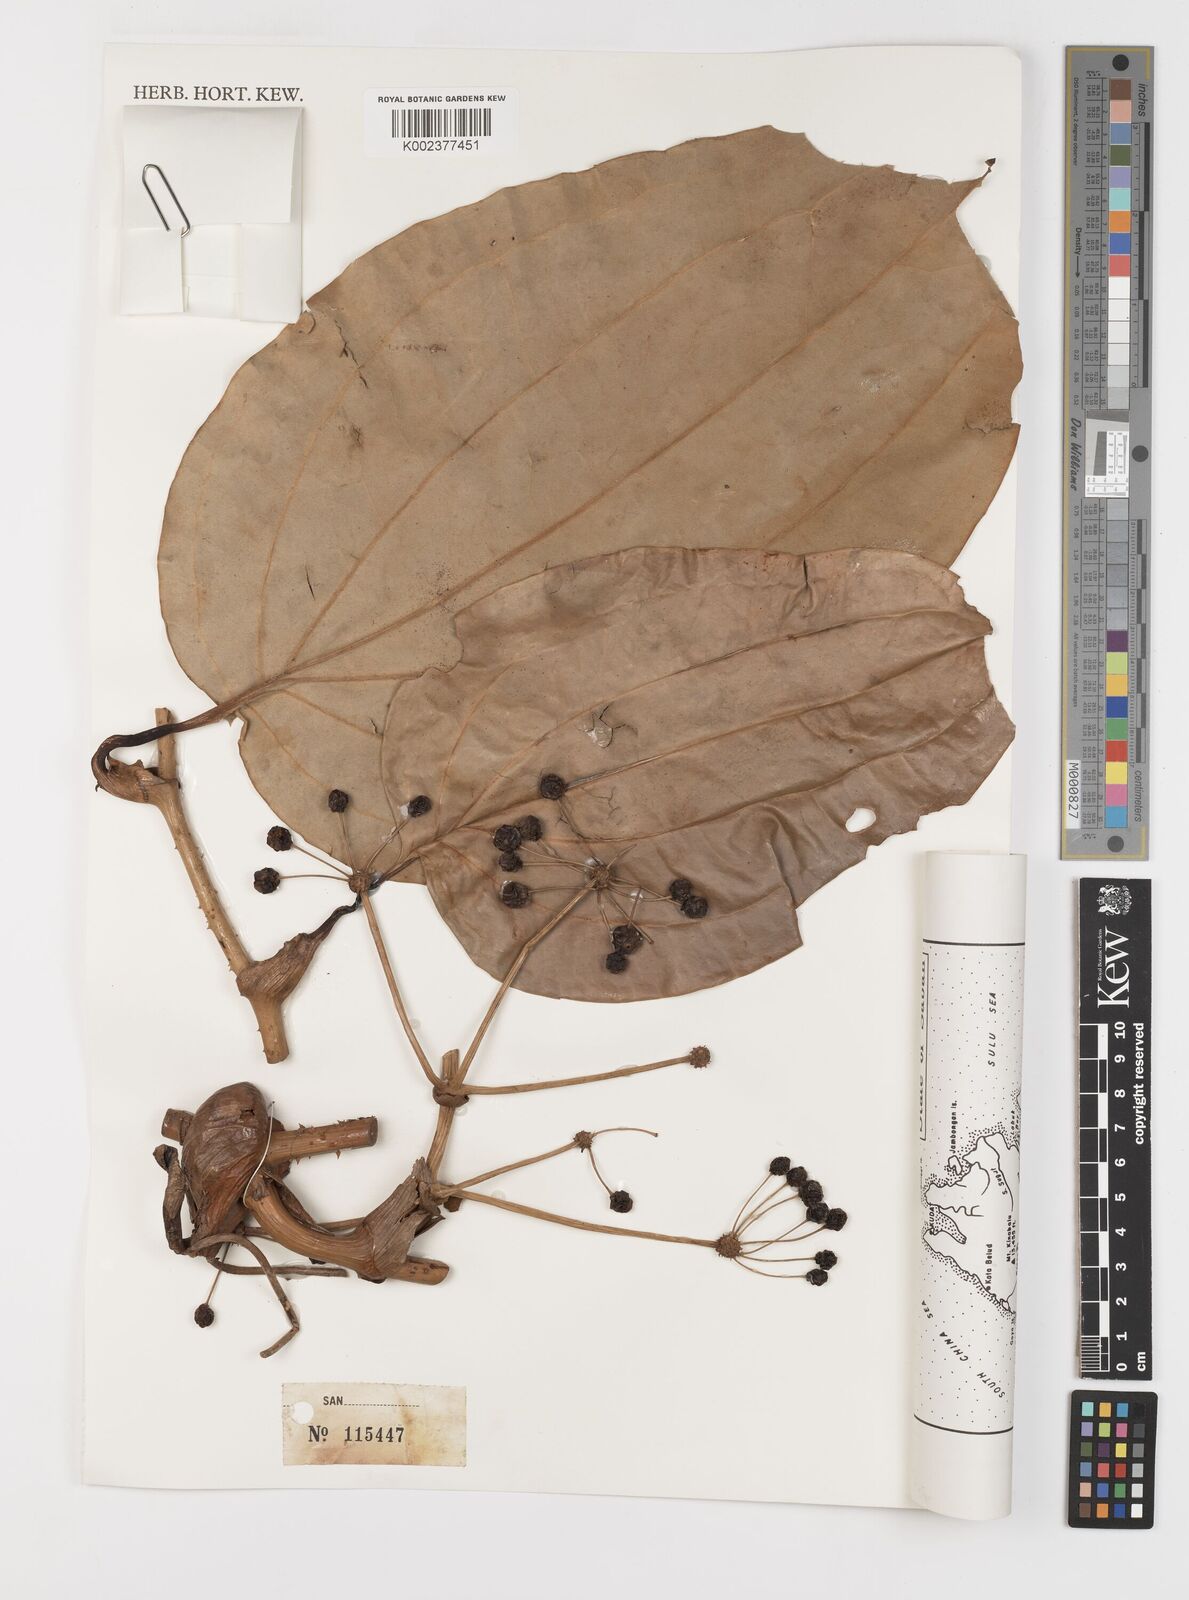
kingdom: Plantae
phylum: Tracheophyta
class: Liliopsida
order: Liliales
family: Smilacaceae
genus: Smilax
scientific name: Smilax borneensis
